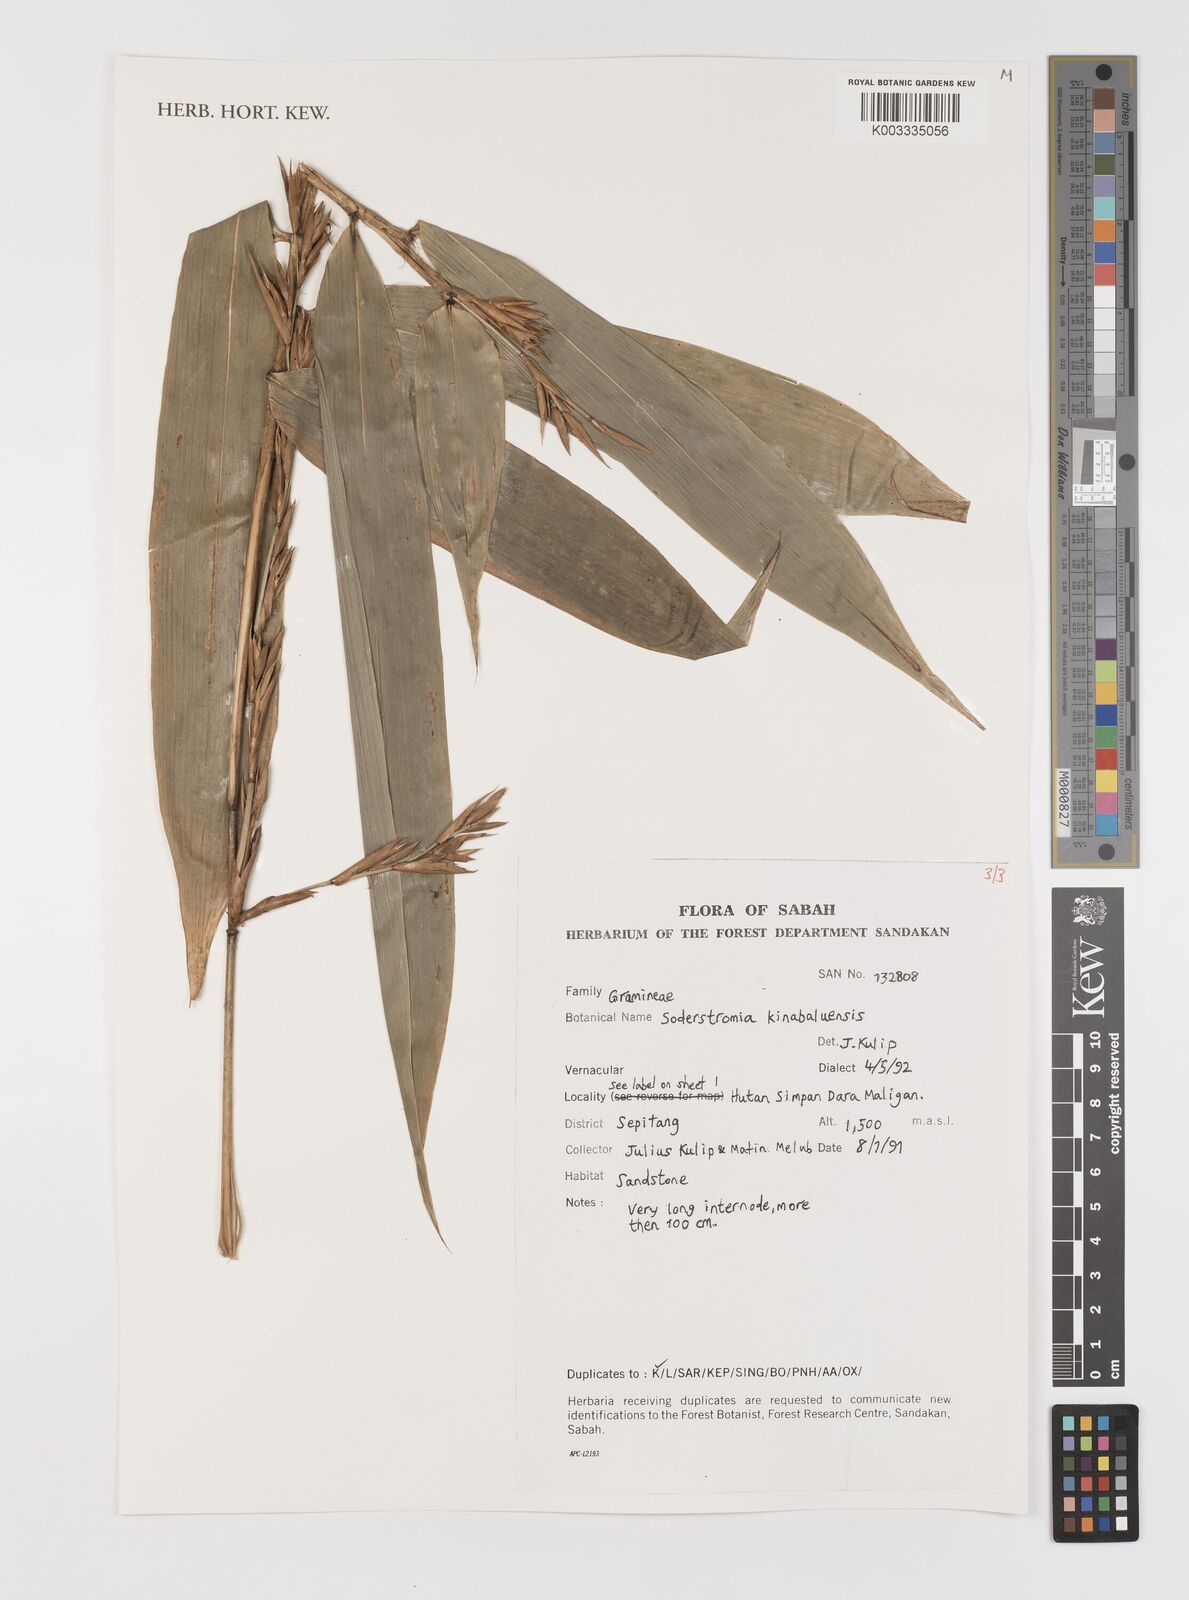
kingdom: Plantae
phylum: Tracheophyta
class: Liliopsida
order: Poales
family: Poaceae
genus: Bouteloua
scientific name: Bouteloua
